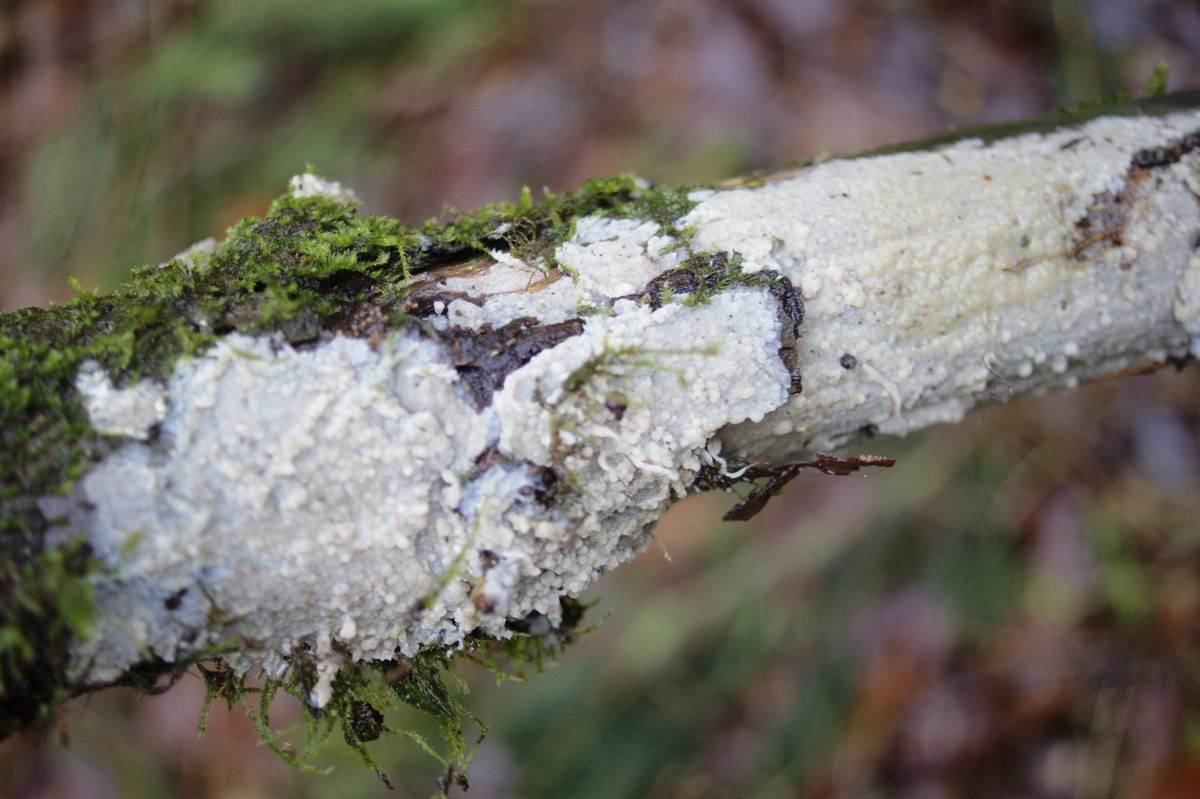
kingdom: Fungi
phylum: Basidiomycota
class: Agaricomycetes
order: Agaricales
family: Radulomycetaceae
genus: Radulomyces
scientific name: Radulomyces confluens
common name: glat naftalinskind
